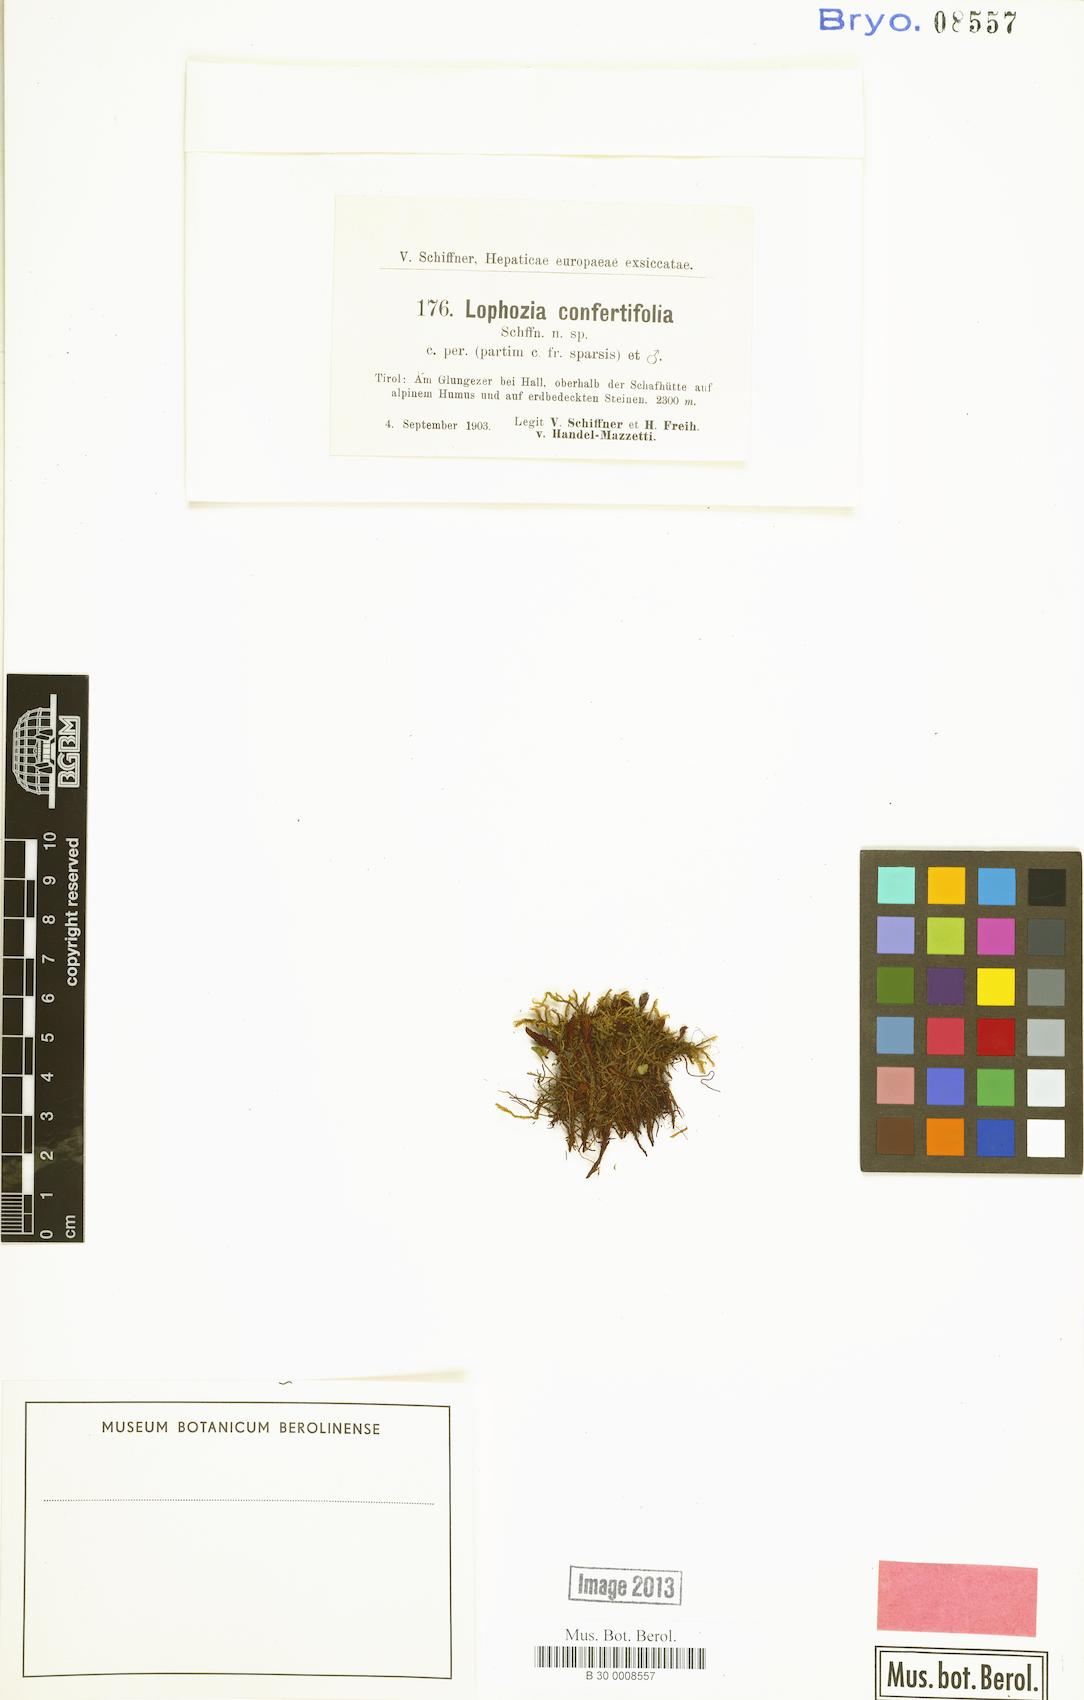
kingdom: Plantae
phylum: Marchantiophyta
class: Jungermanniopsida
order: Jungermanniales
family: Lophoziaceae
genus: Lophozia
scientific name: Lophozia murmanica
